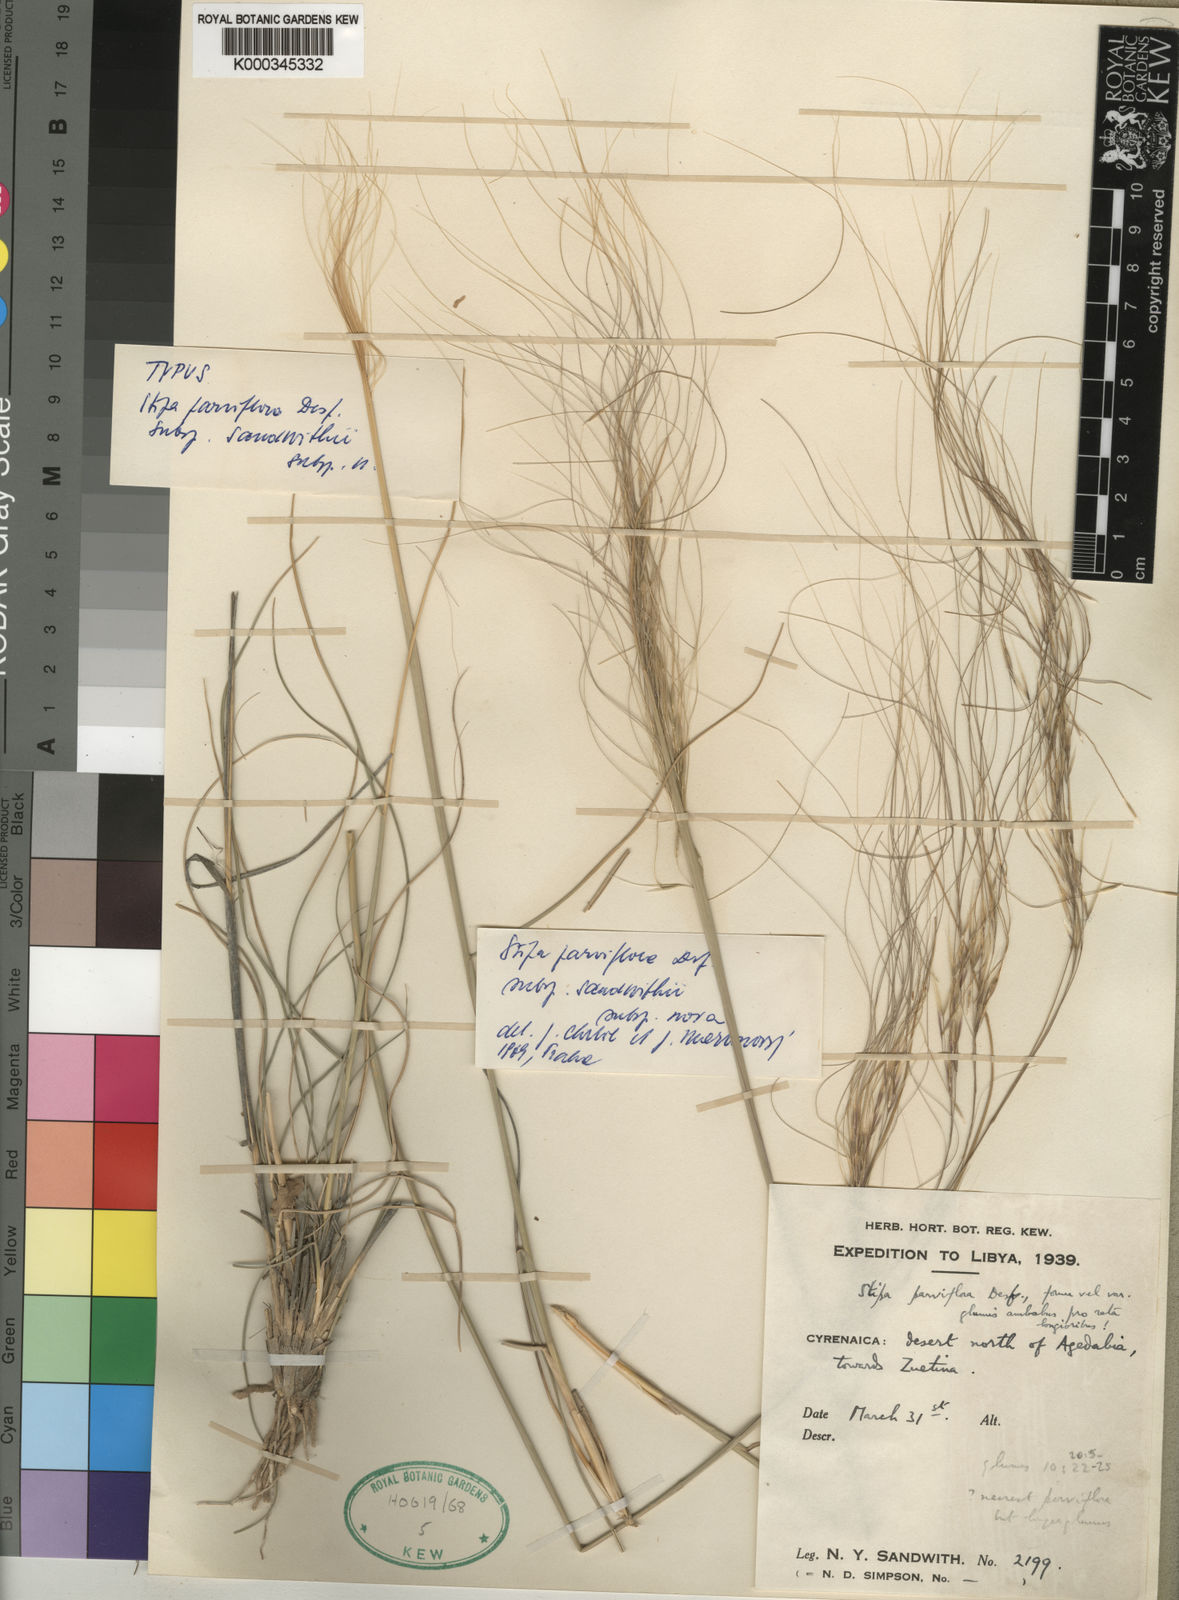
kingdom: Plantae
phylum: Tracheophyta
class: Liliopsida
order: Poales
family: Poaceae
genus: Achnatherum
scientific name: Achnatherum parviflorum
